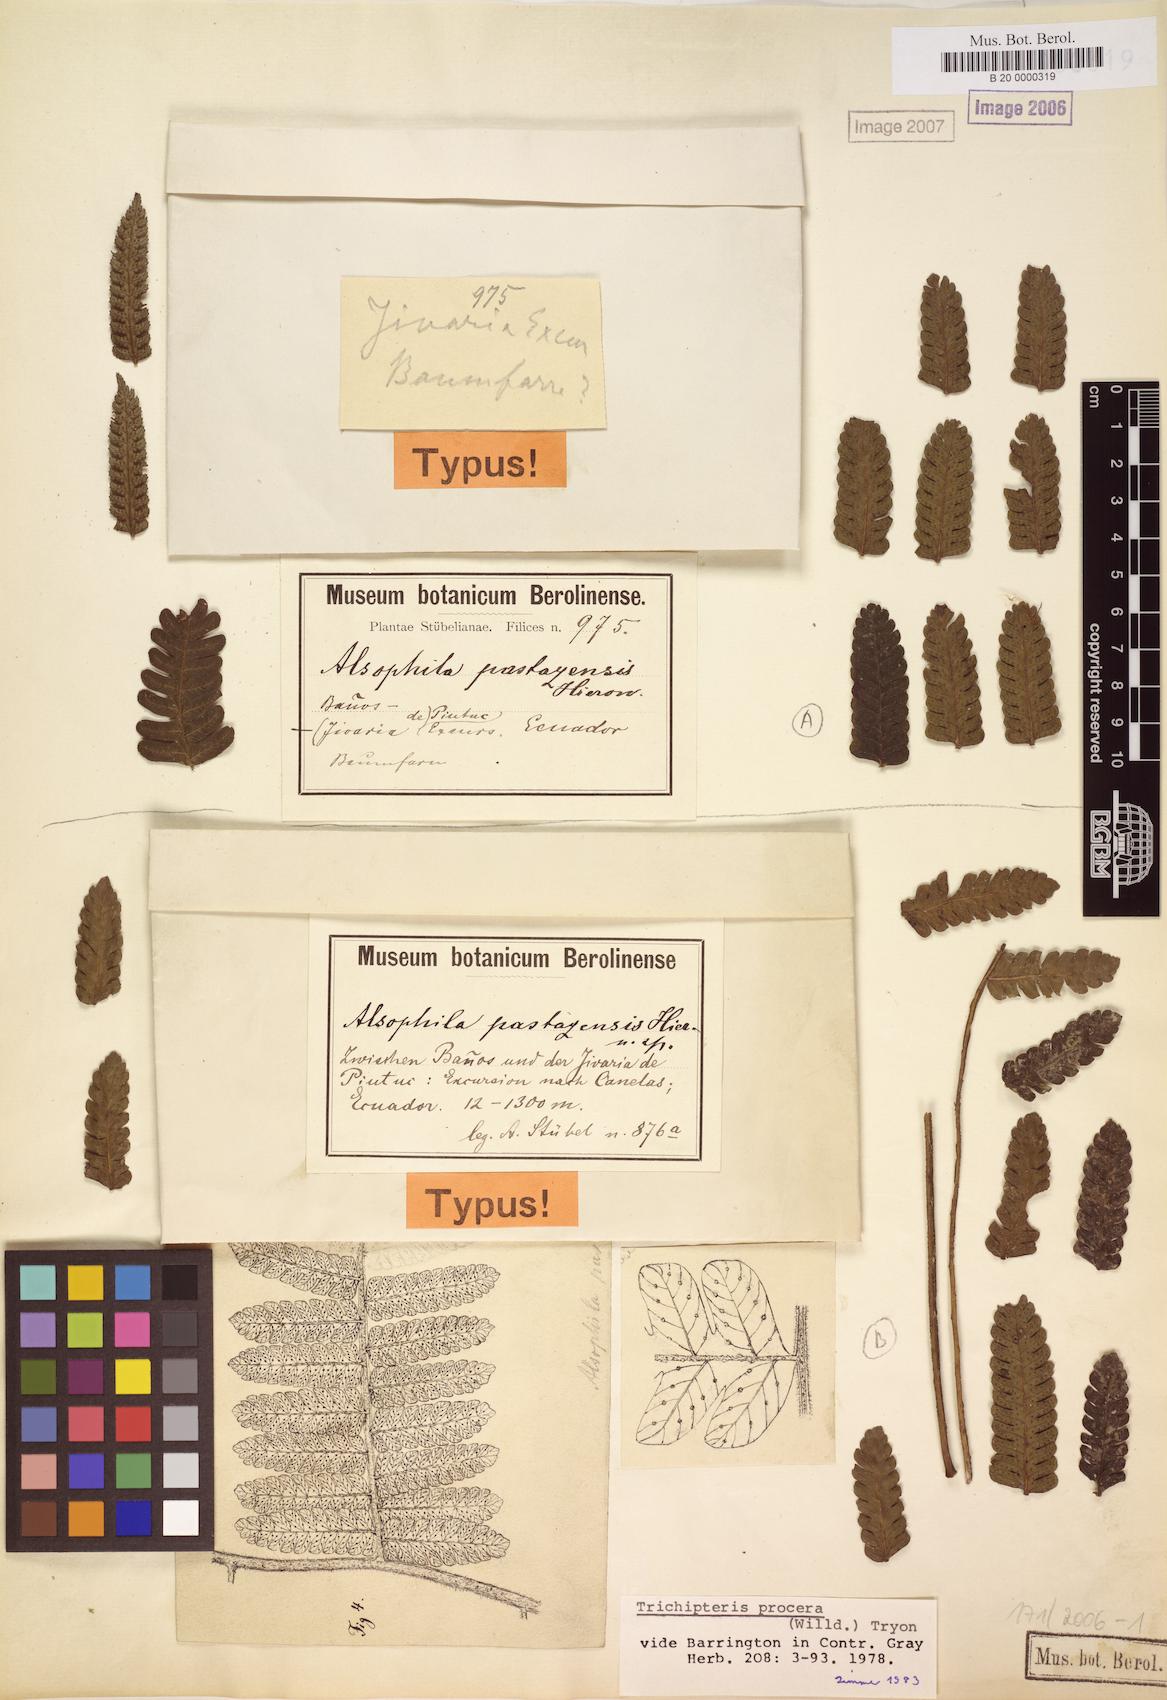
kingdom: Plantae
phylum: Tracheophyta
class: Polypodiopsida
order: Cyatheales
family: Cyatheaceae
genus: Cyathea
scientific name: Cyathea pungens
